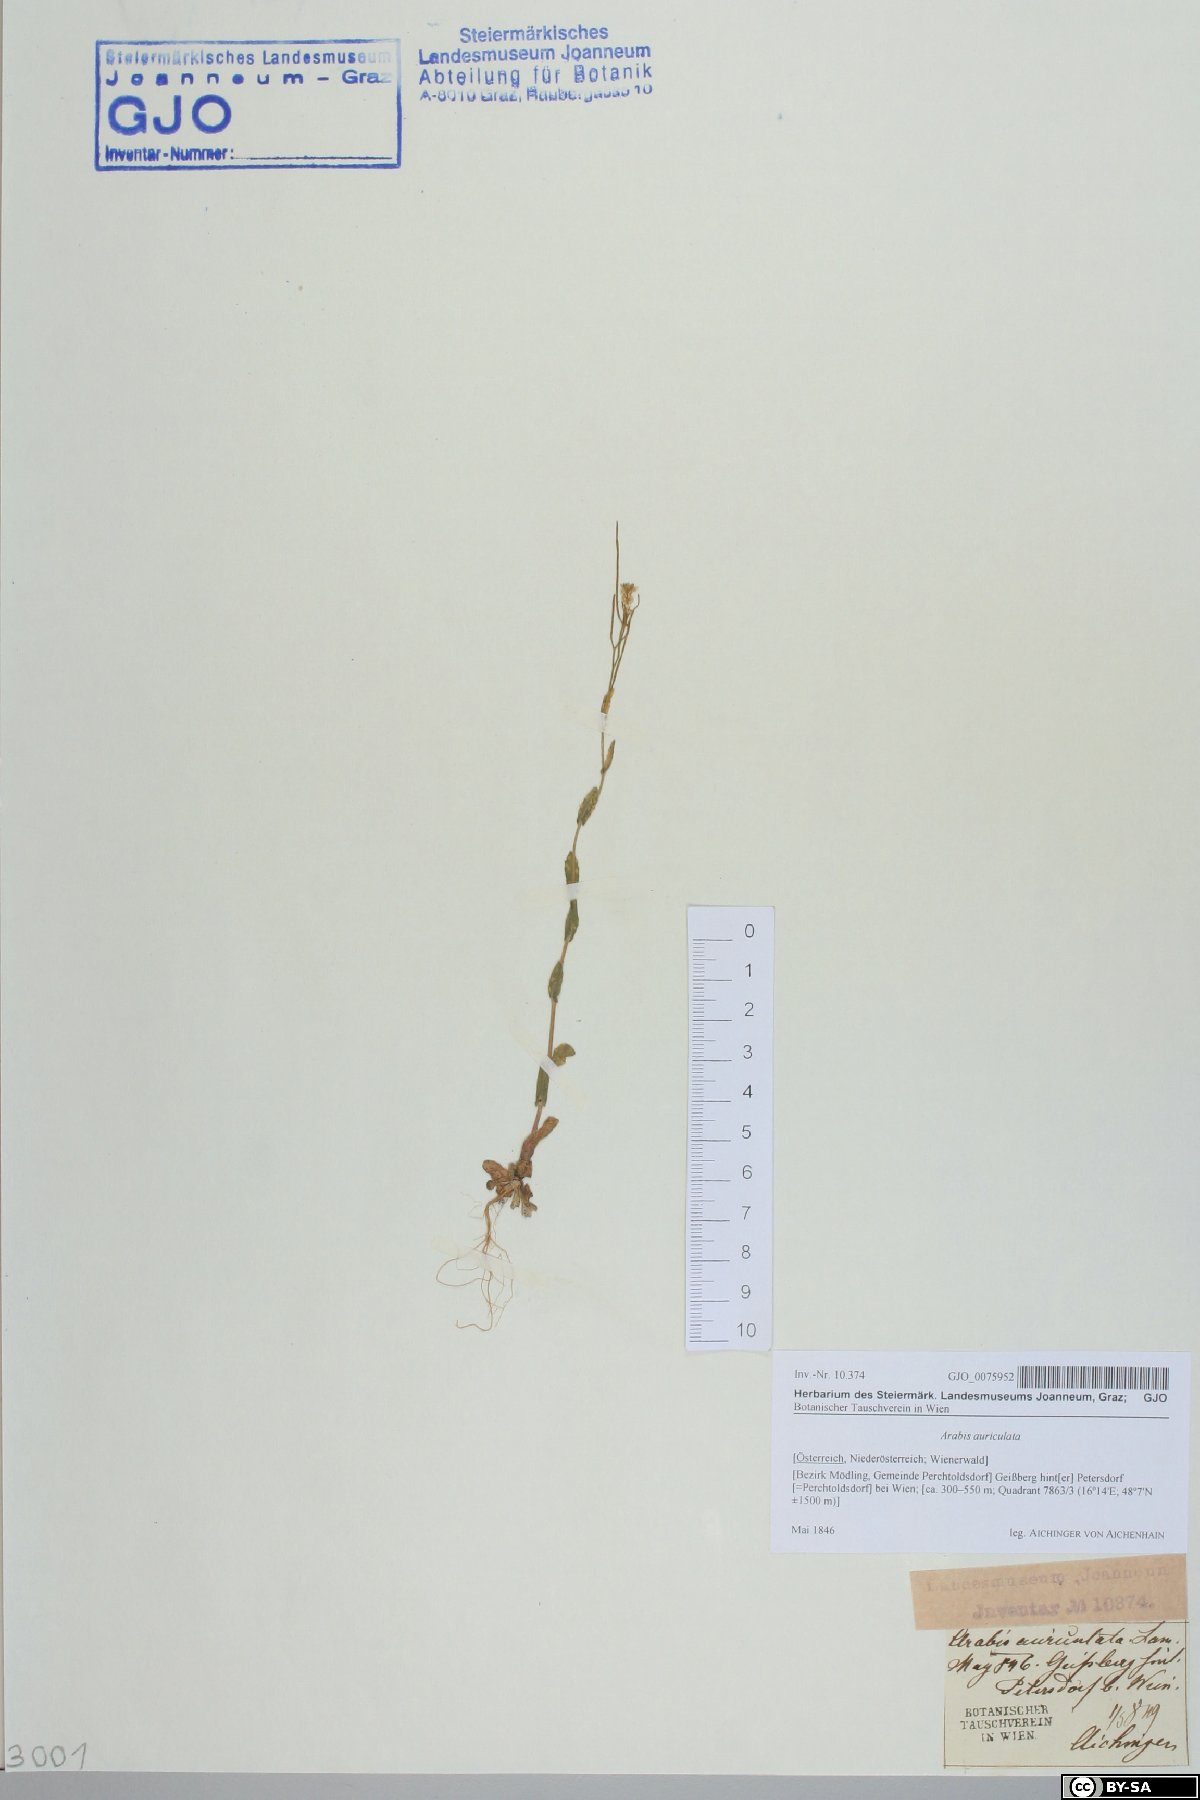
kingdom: Plantae
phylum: Tracheophyta
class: Magnoliopsida
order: Brassicales
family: Brassicaceae
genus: Arabis
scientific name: Arabis auriculata
